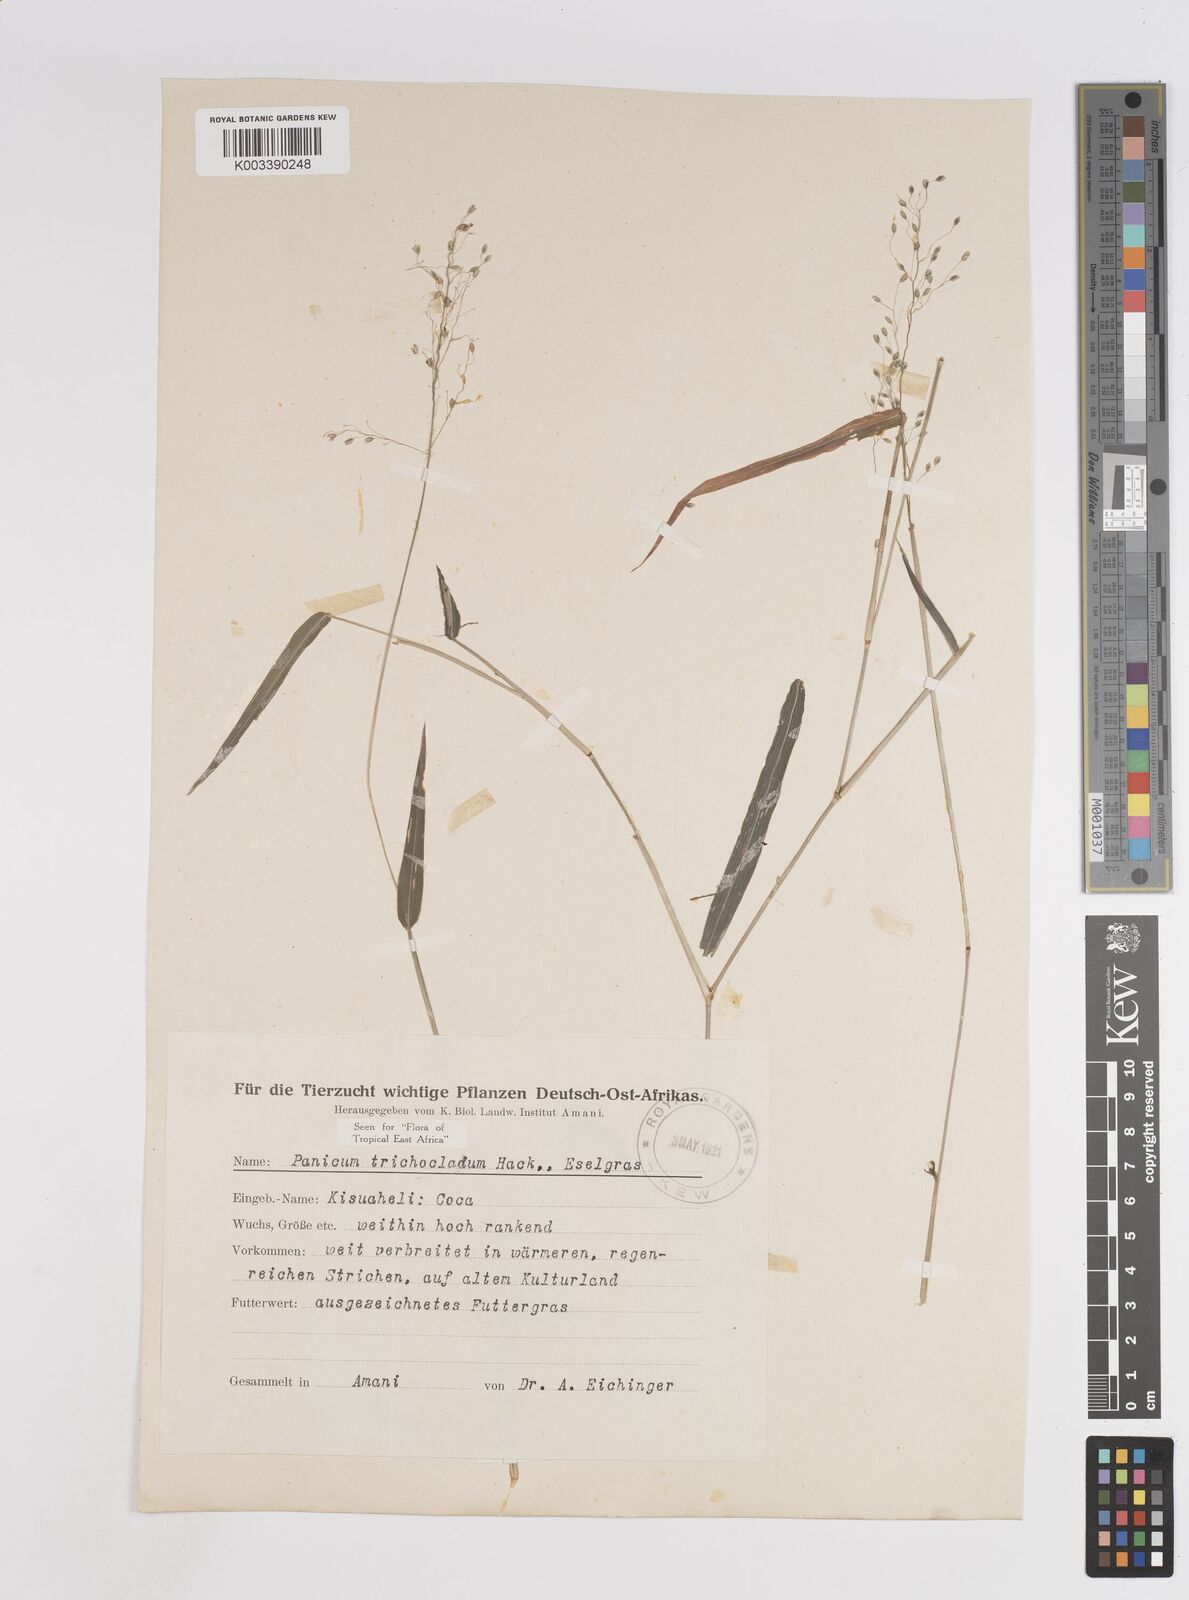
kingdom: Plantae
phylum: Tracheophyta
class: Liliopsida
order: Poales
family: Poaceae
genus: Panicum
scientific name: Panicum trichocladum
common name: Donkey grass
